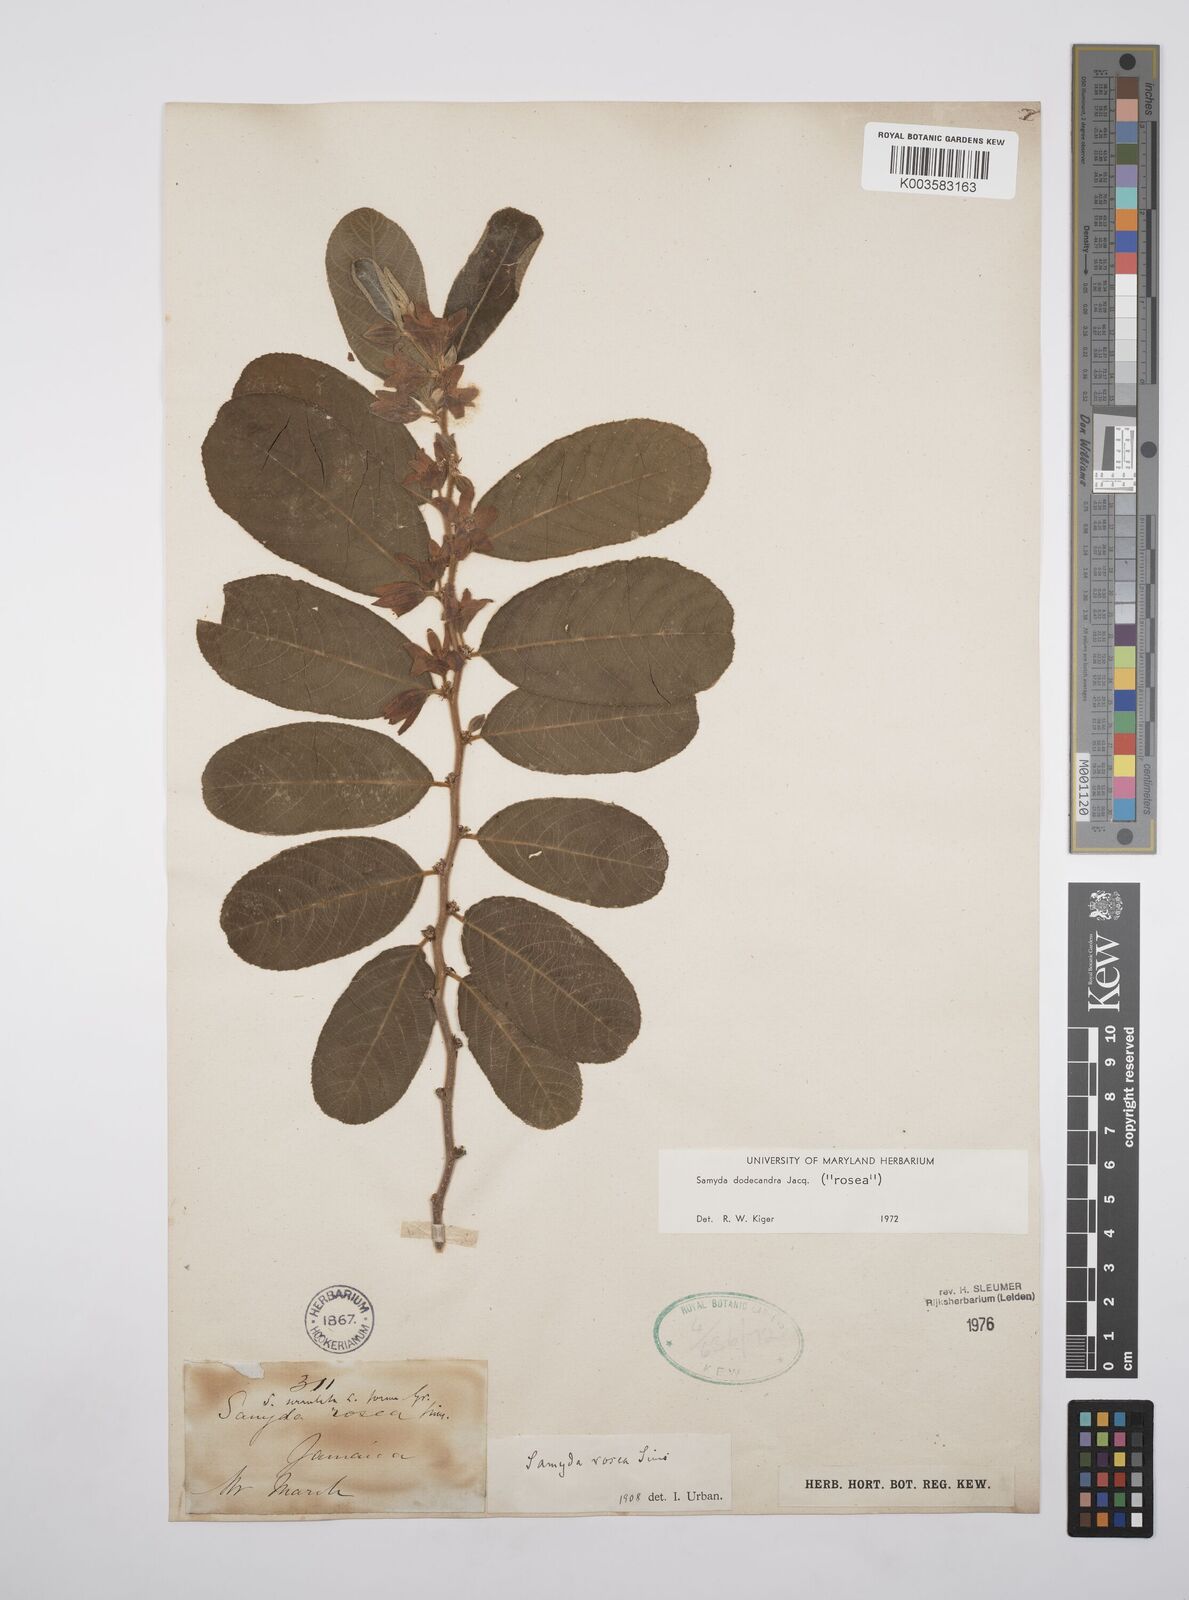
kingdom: Plantae
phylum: Tracheophyta
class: Magnoliopsida
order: Malpighiales
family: Salicaceae
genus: Casearia
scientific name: Casearia dodecandra
